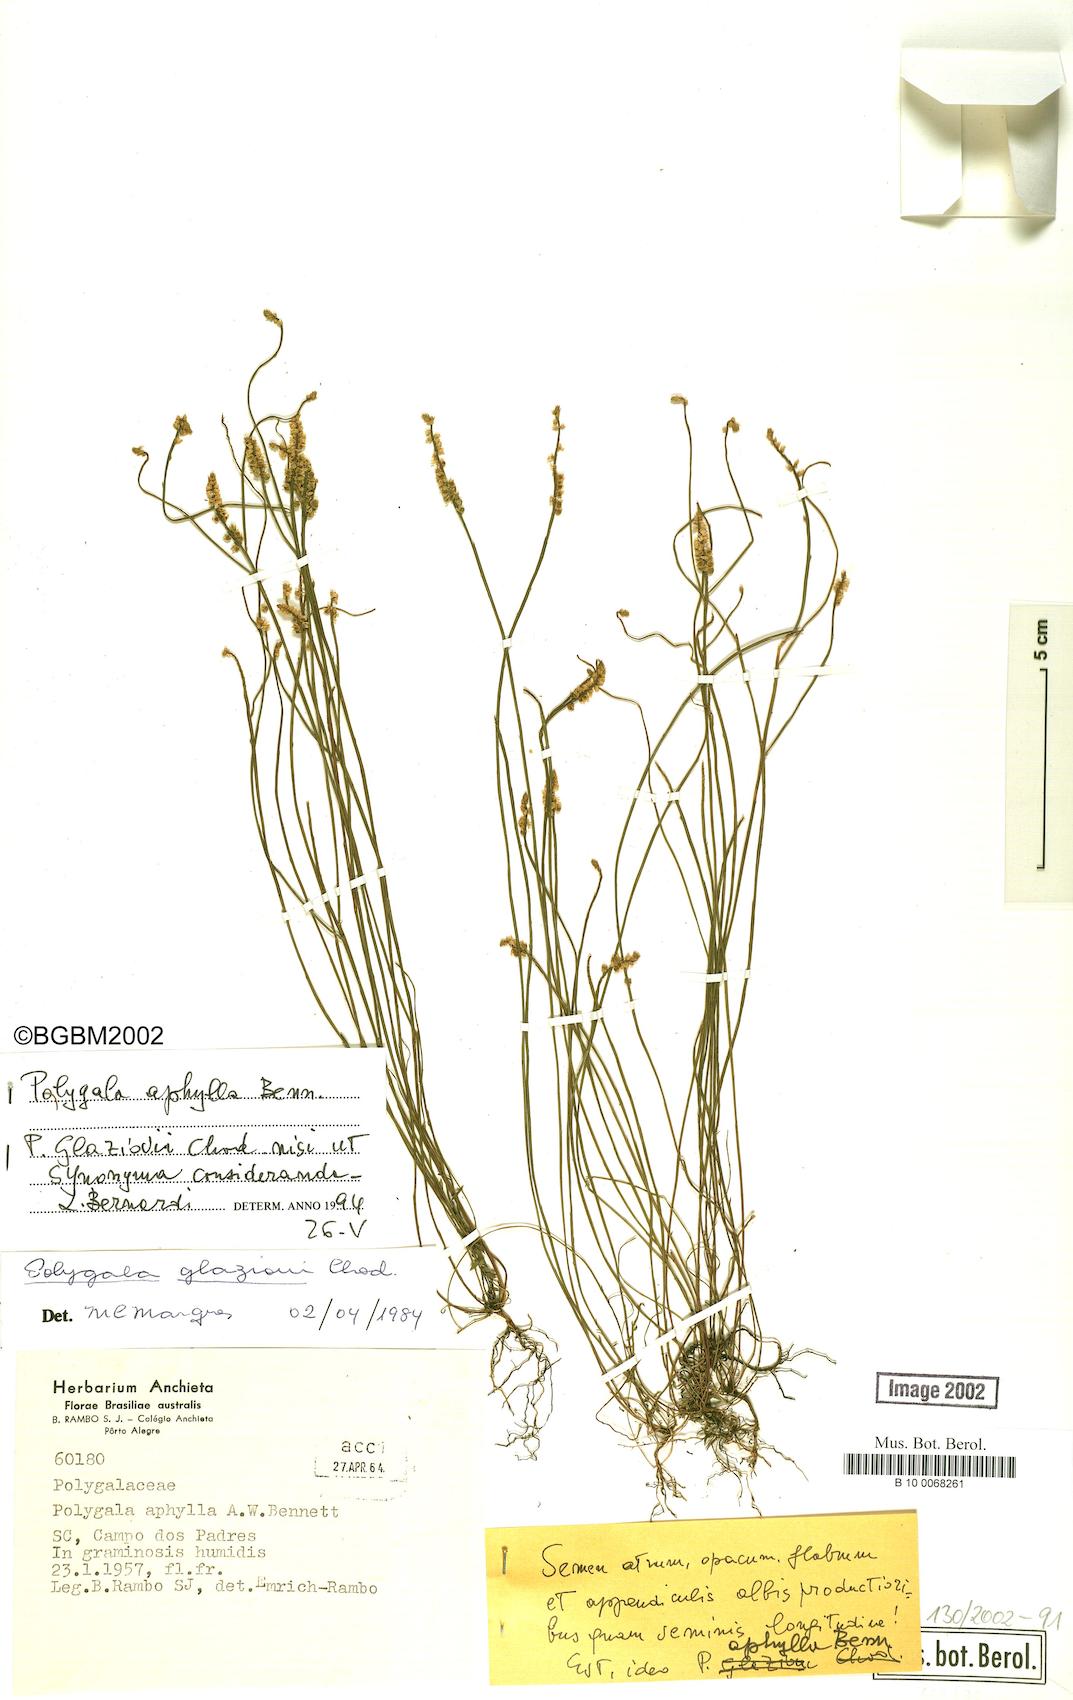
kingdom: Plantae
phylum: Tracheophyta
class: Magnoliopsida
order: Fabales
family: Polygalaceae
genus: Polygala
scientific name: Polygala aphylla
